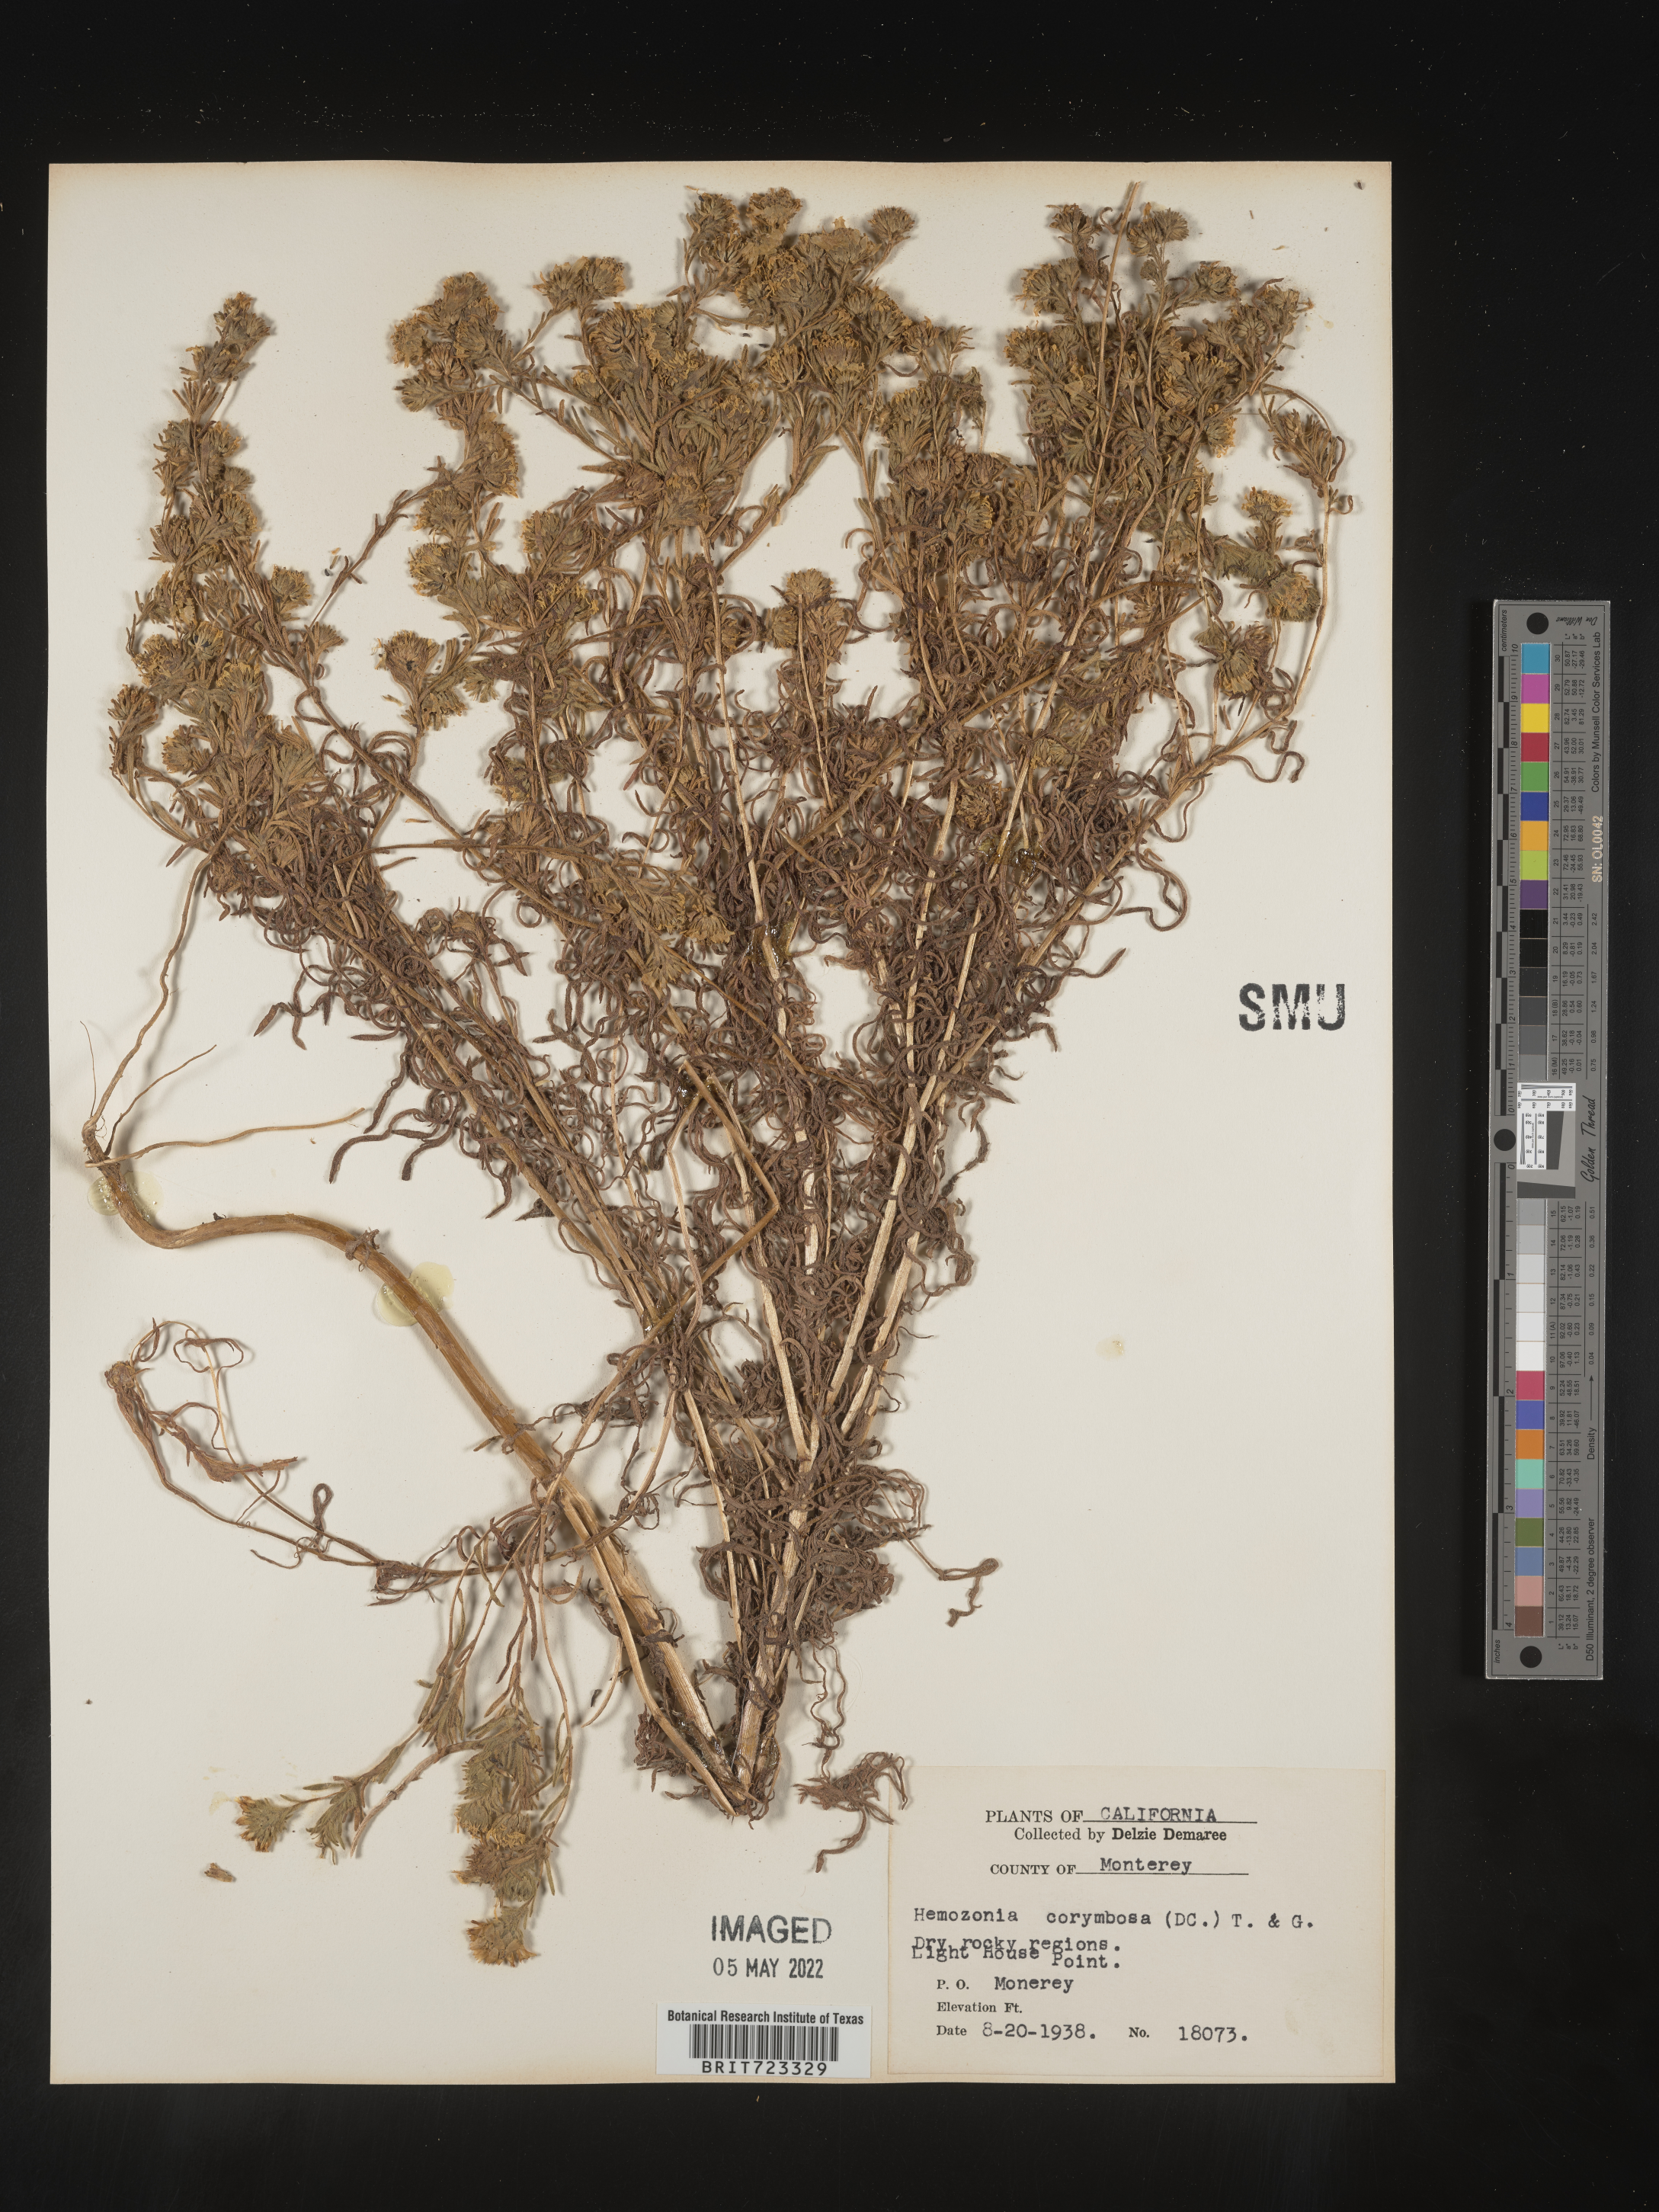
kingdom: Plantae
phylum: Tracheophyta
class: Magnoliopsida
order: Asterales
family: Asteraceae
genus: Hemizonia
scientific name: Hemizonia
